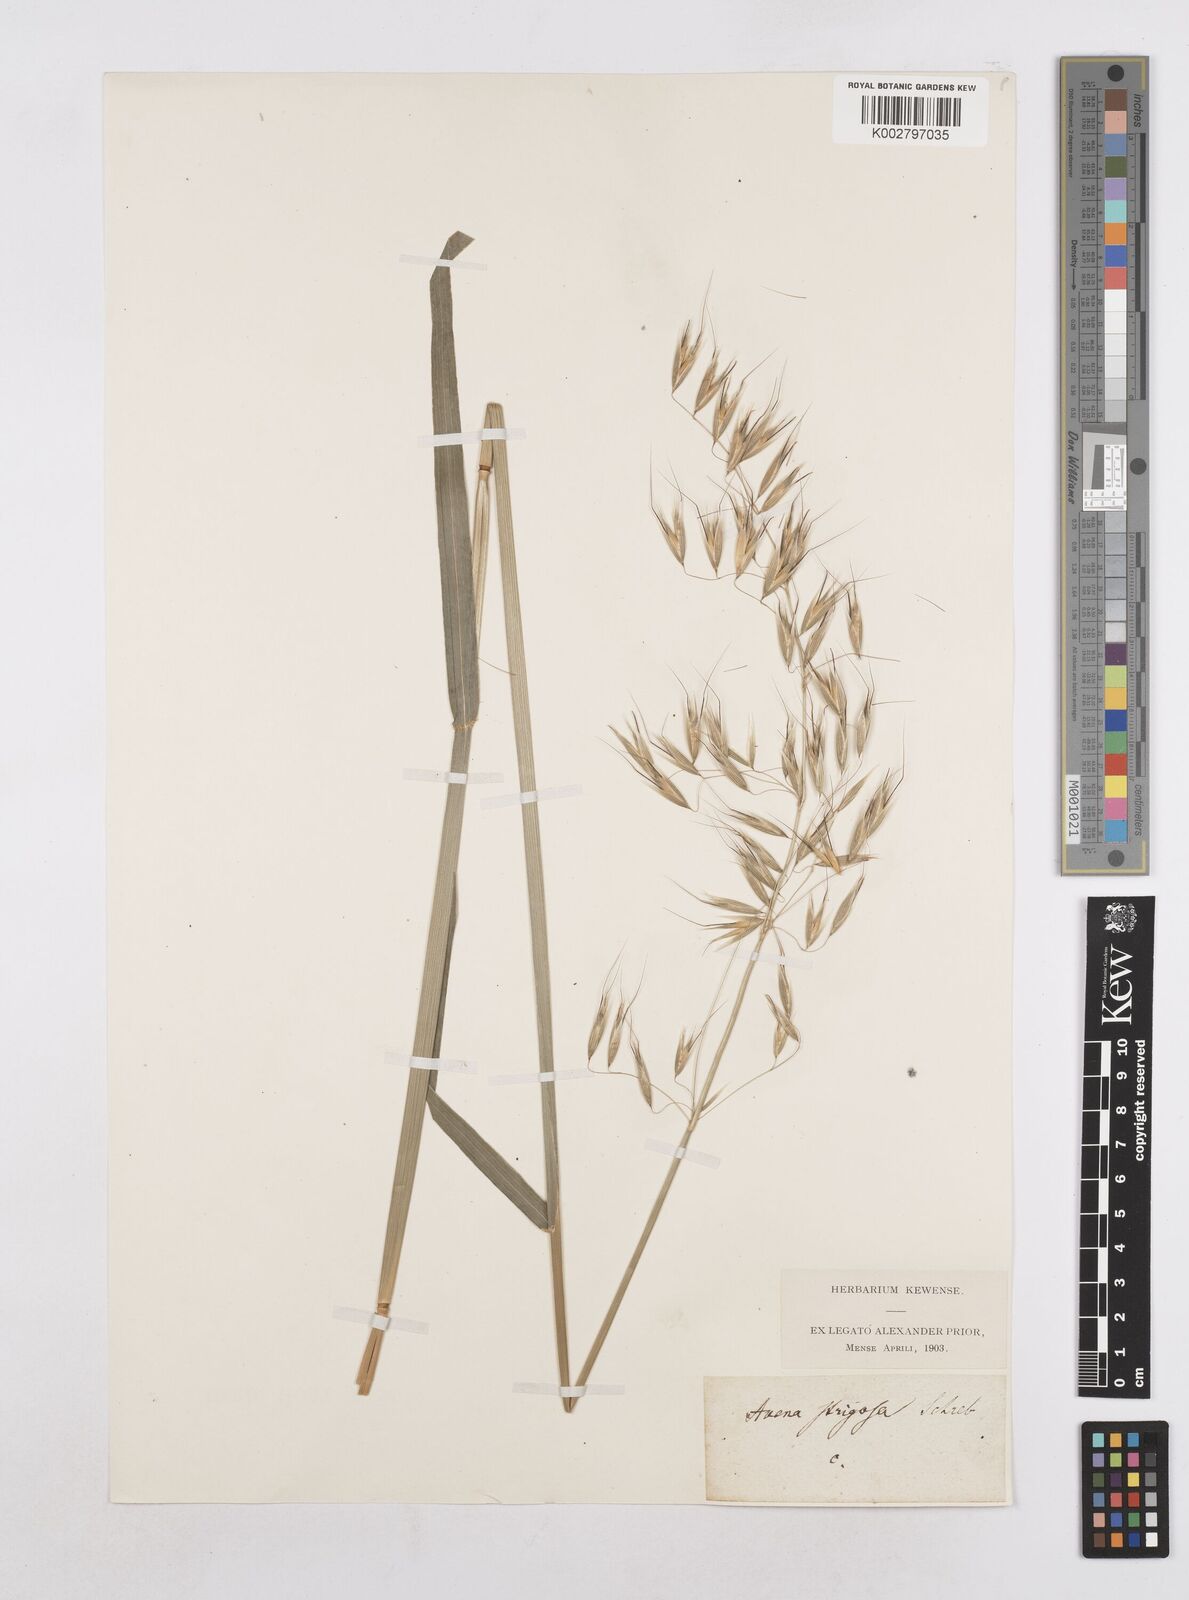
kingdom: Plantae
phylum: Tracheophyta
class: Liliopsida
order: Poales
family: Poaceae
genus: Avena
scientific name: Avena strigosa
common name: Bristle oat
